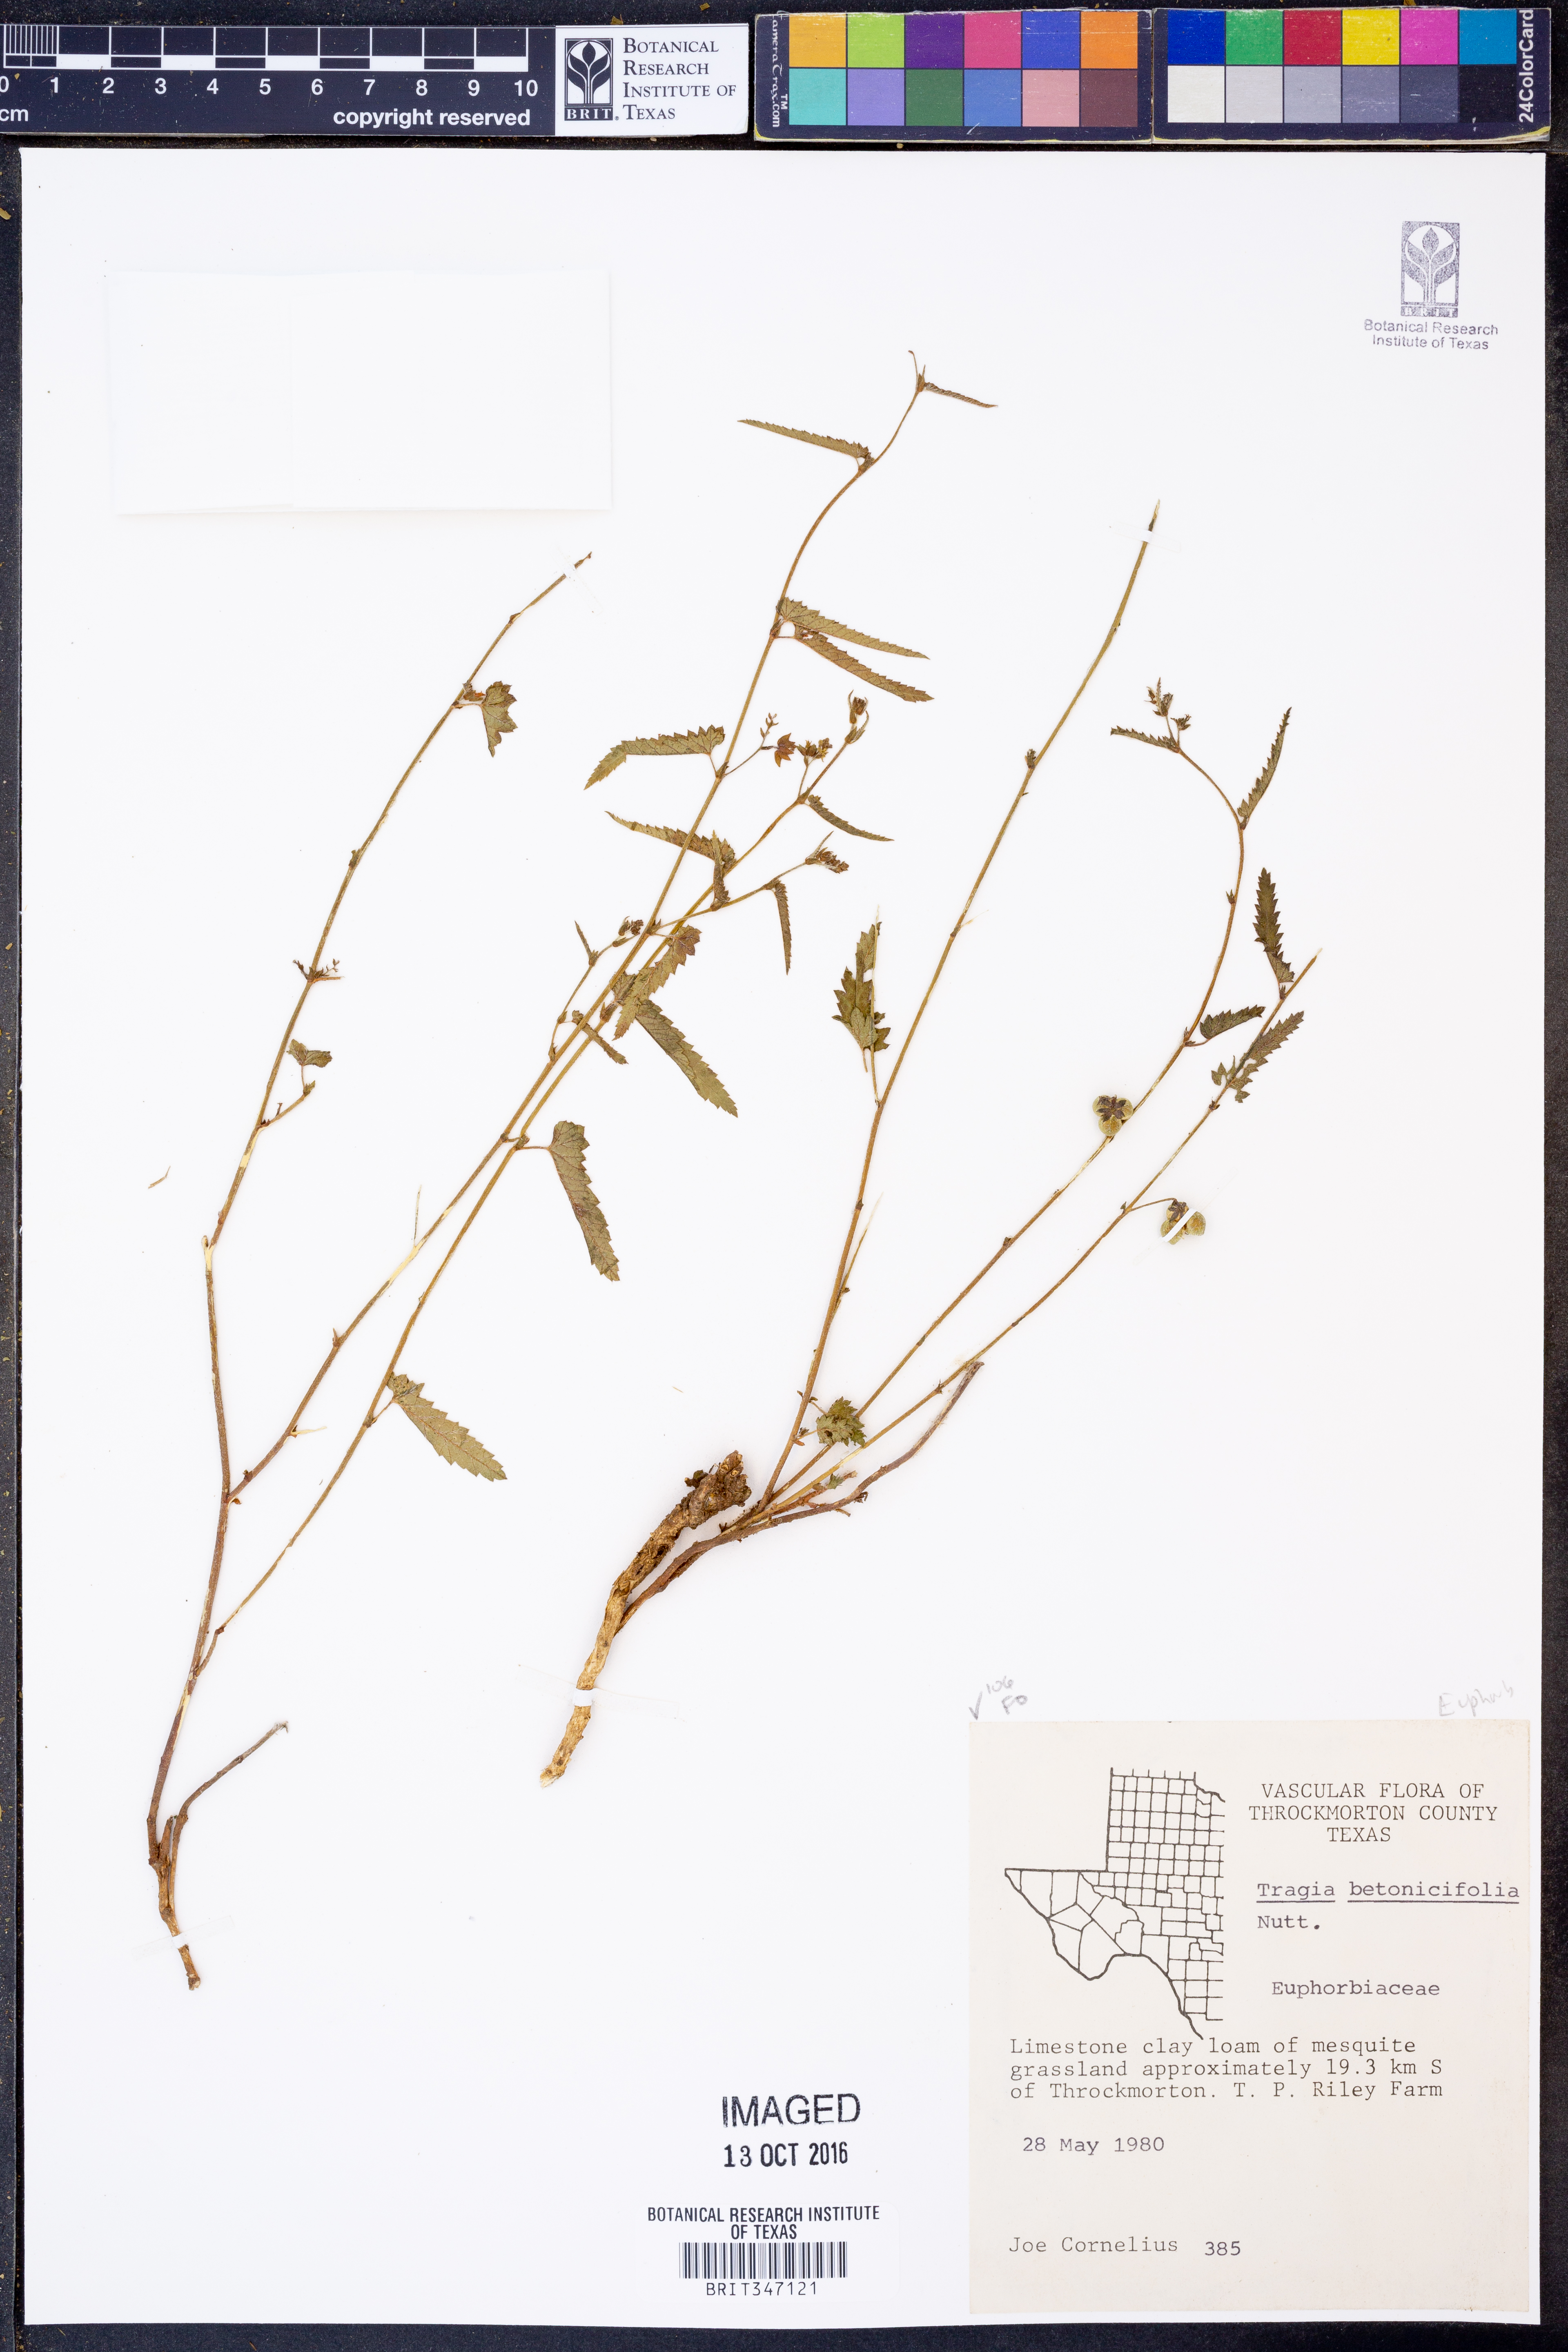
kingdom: Plantae
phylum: Tracheophyta
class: Magnoliopsida
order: Malpighiales
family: Euphorbiaceae
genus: Tragia
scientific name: Tragia betonicifolia
